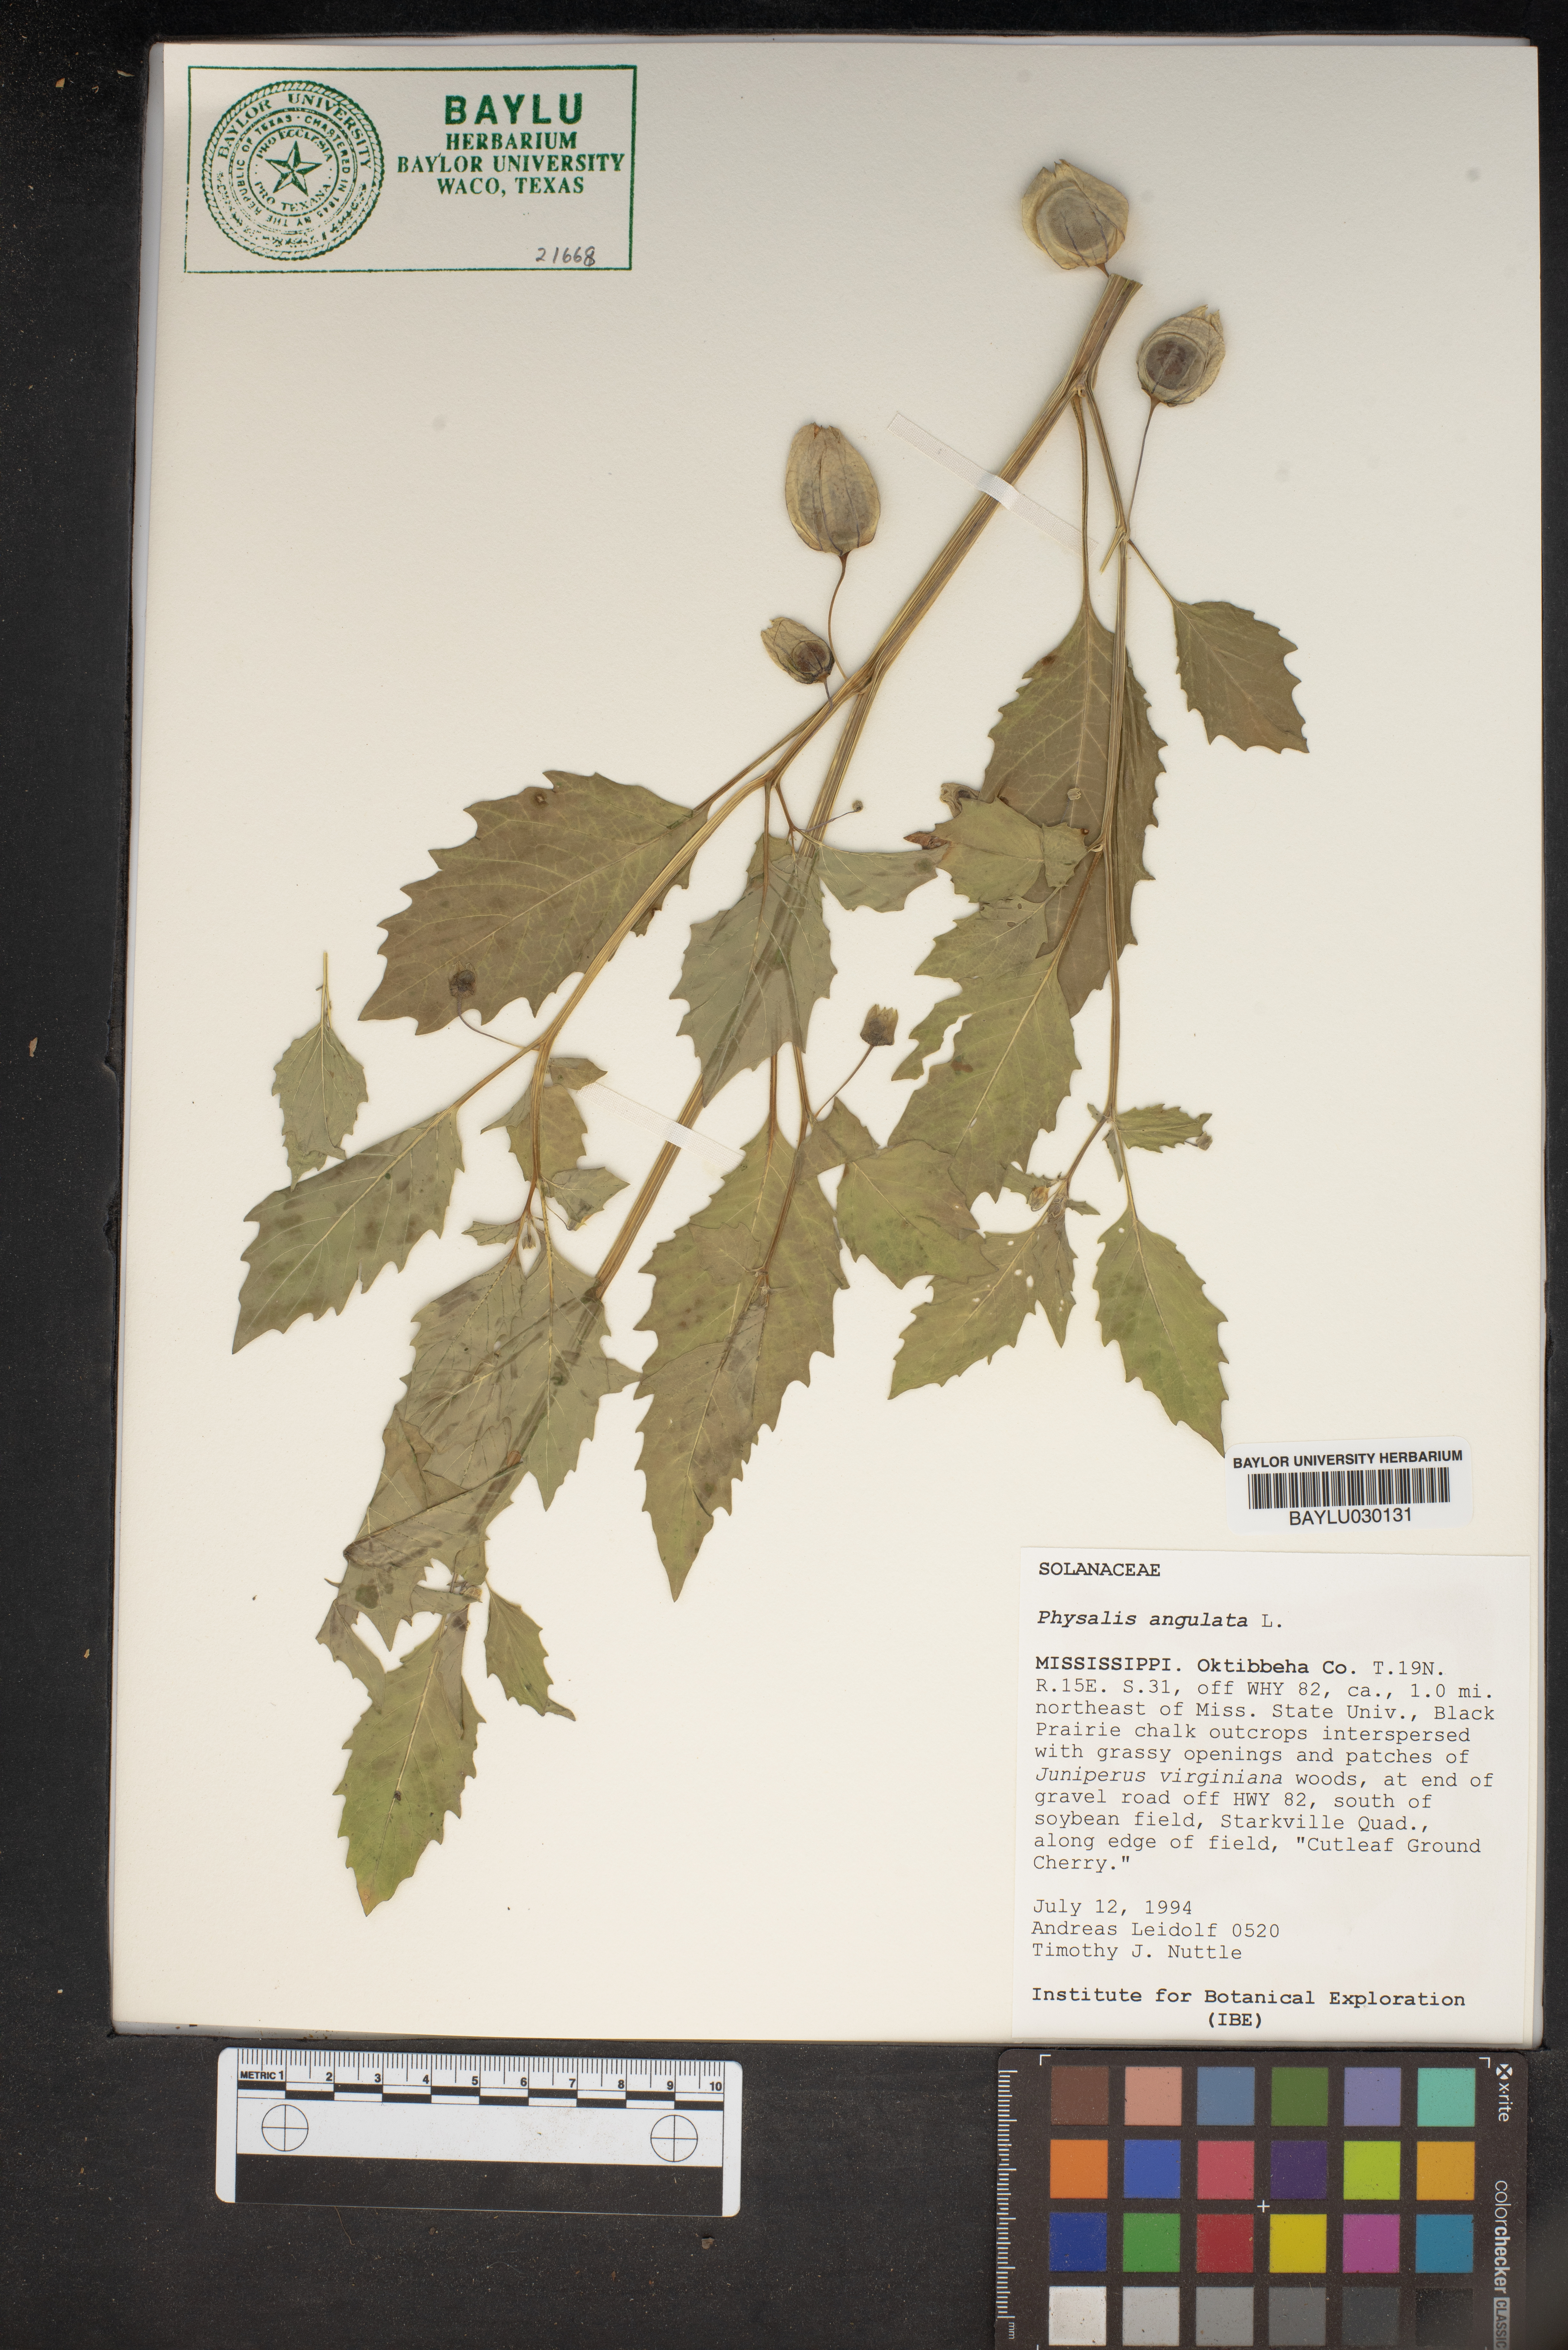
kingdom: Plantae
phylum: Tracheophyta
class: Magnoliopsida
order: Solanales
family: Solanaceae
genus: Physalis
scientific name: Physalis angulata
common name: Angular winter-cherry
